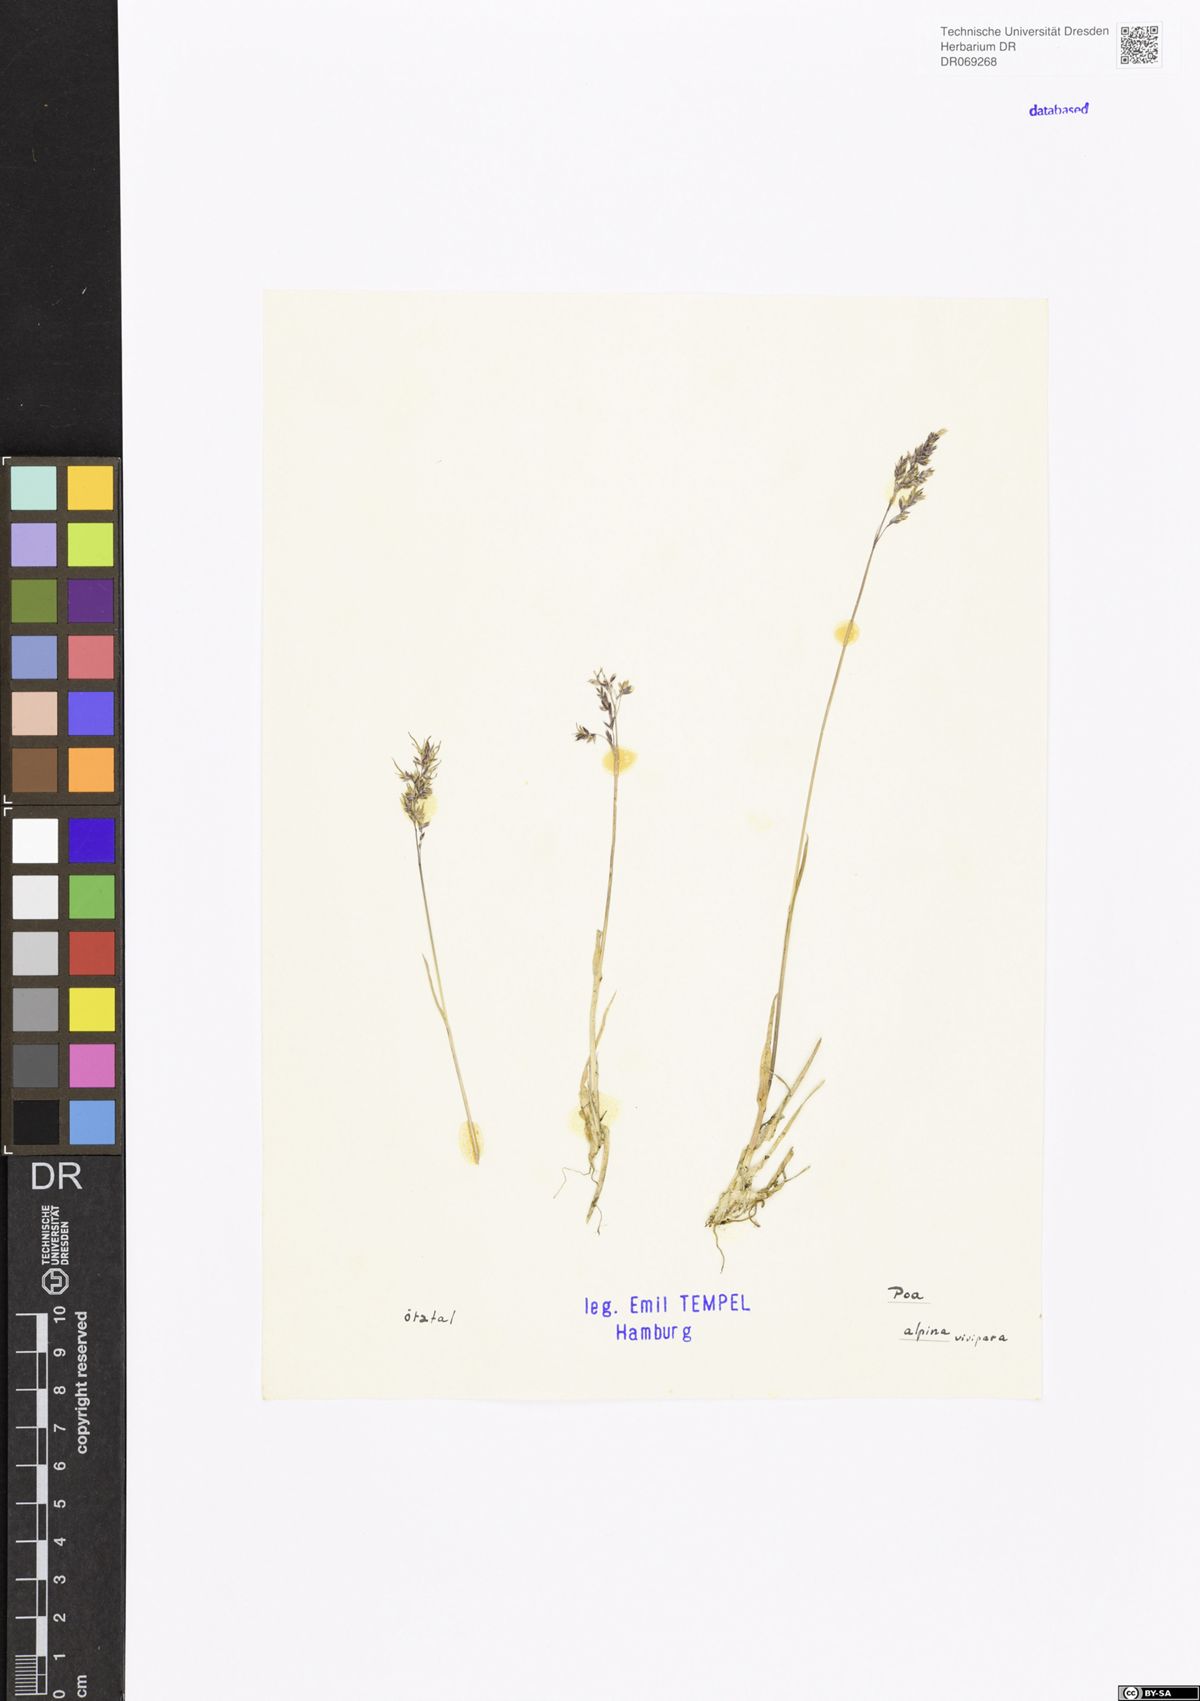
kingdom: Plantae
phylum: Tracheophyta
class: Liliopsida
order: Poales
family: Poaceae
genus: Poa
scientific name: Poa alpina
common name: Alpine bluegrass
